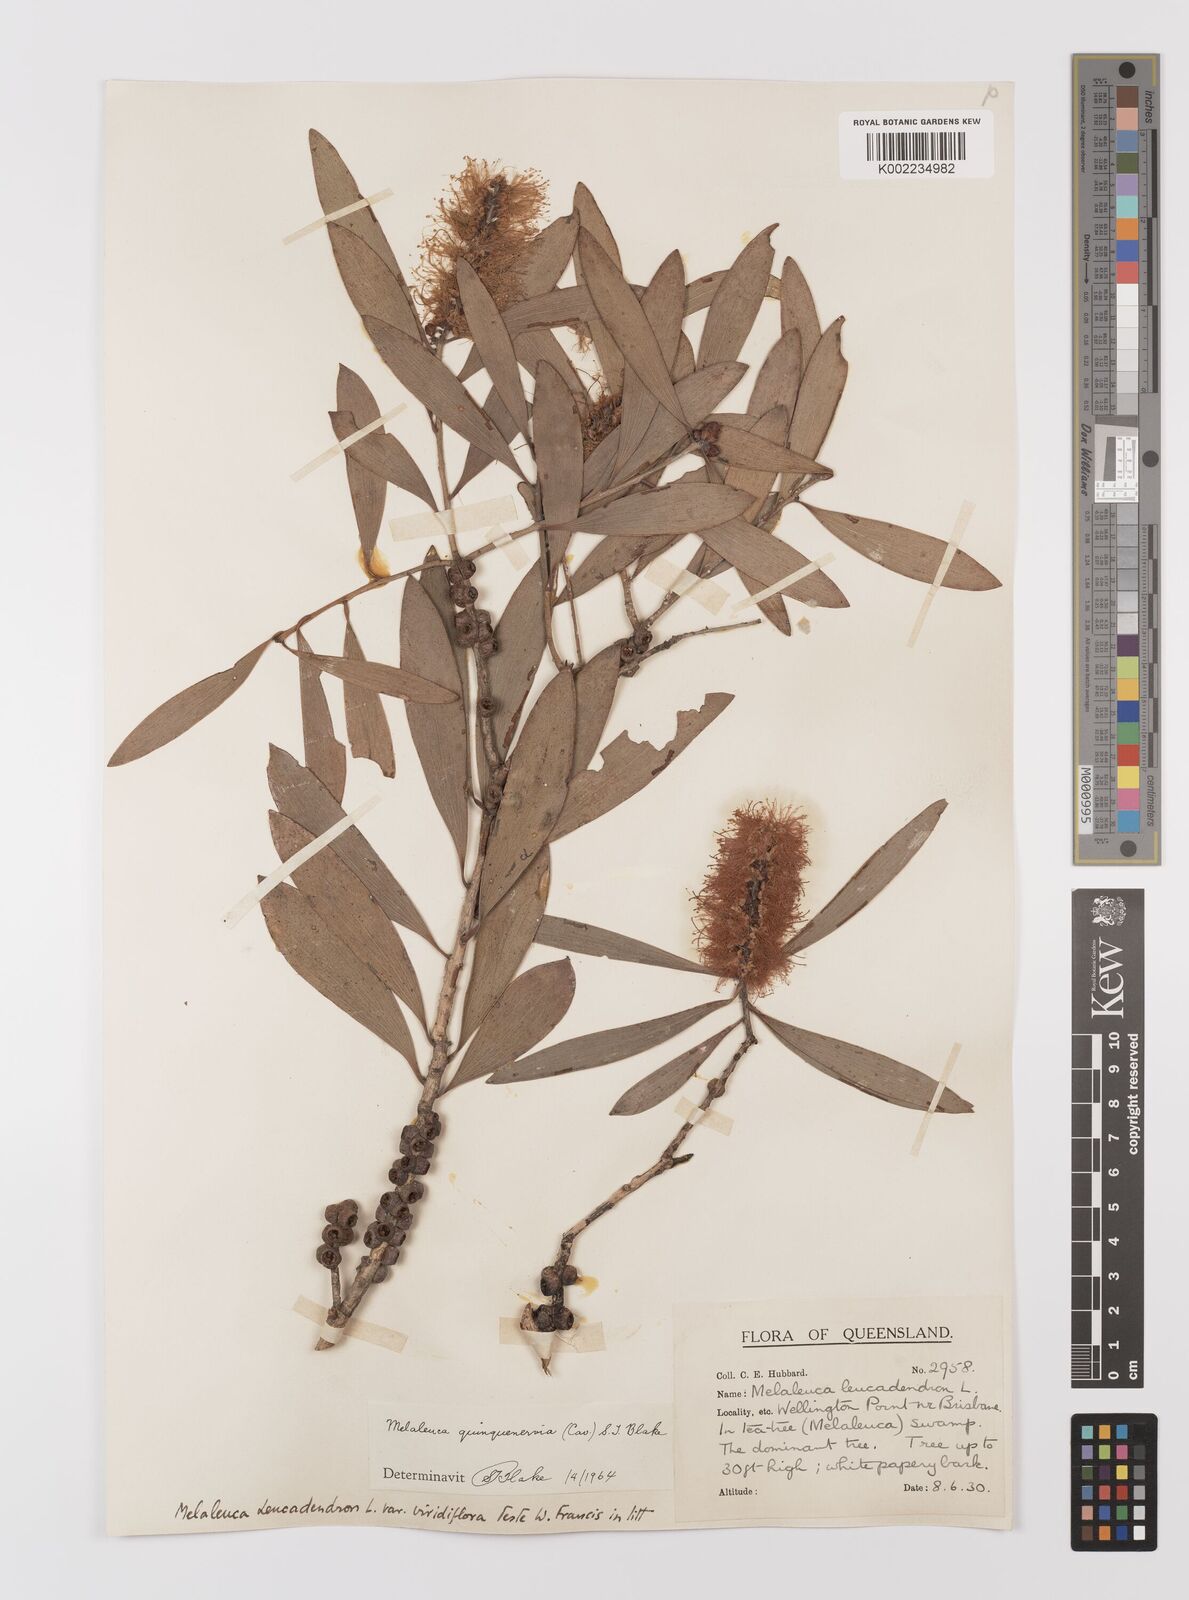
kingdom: Plantae
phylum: Tracheophyta
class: Magnoliopsida
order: Myrtales
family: Myrtaceae
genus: Melaleuca
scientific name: Melaleuca quinquenervia
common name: Punktree
